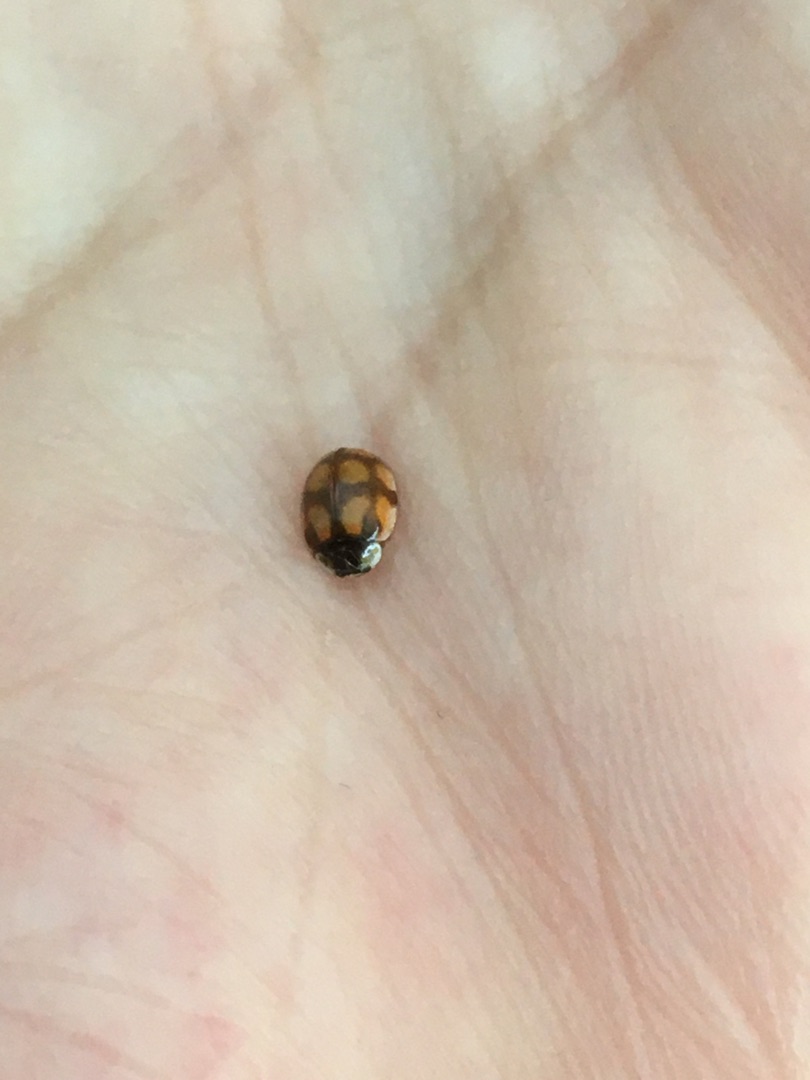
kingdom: Animalia
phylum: Arthropoda
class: Insecta
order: Coleoptera
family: Coccinellidae
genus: Adalia
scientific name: Adalia decempunctata
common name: Tiplettet mariehøne
